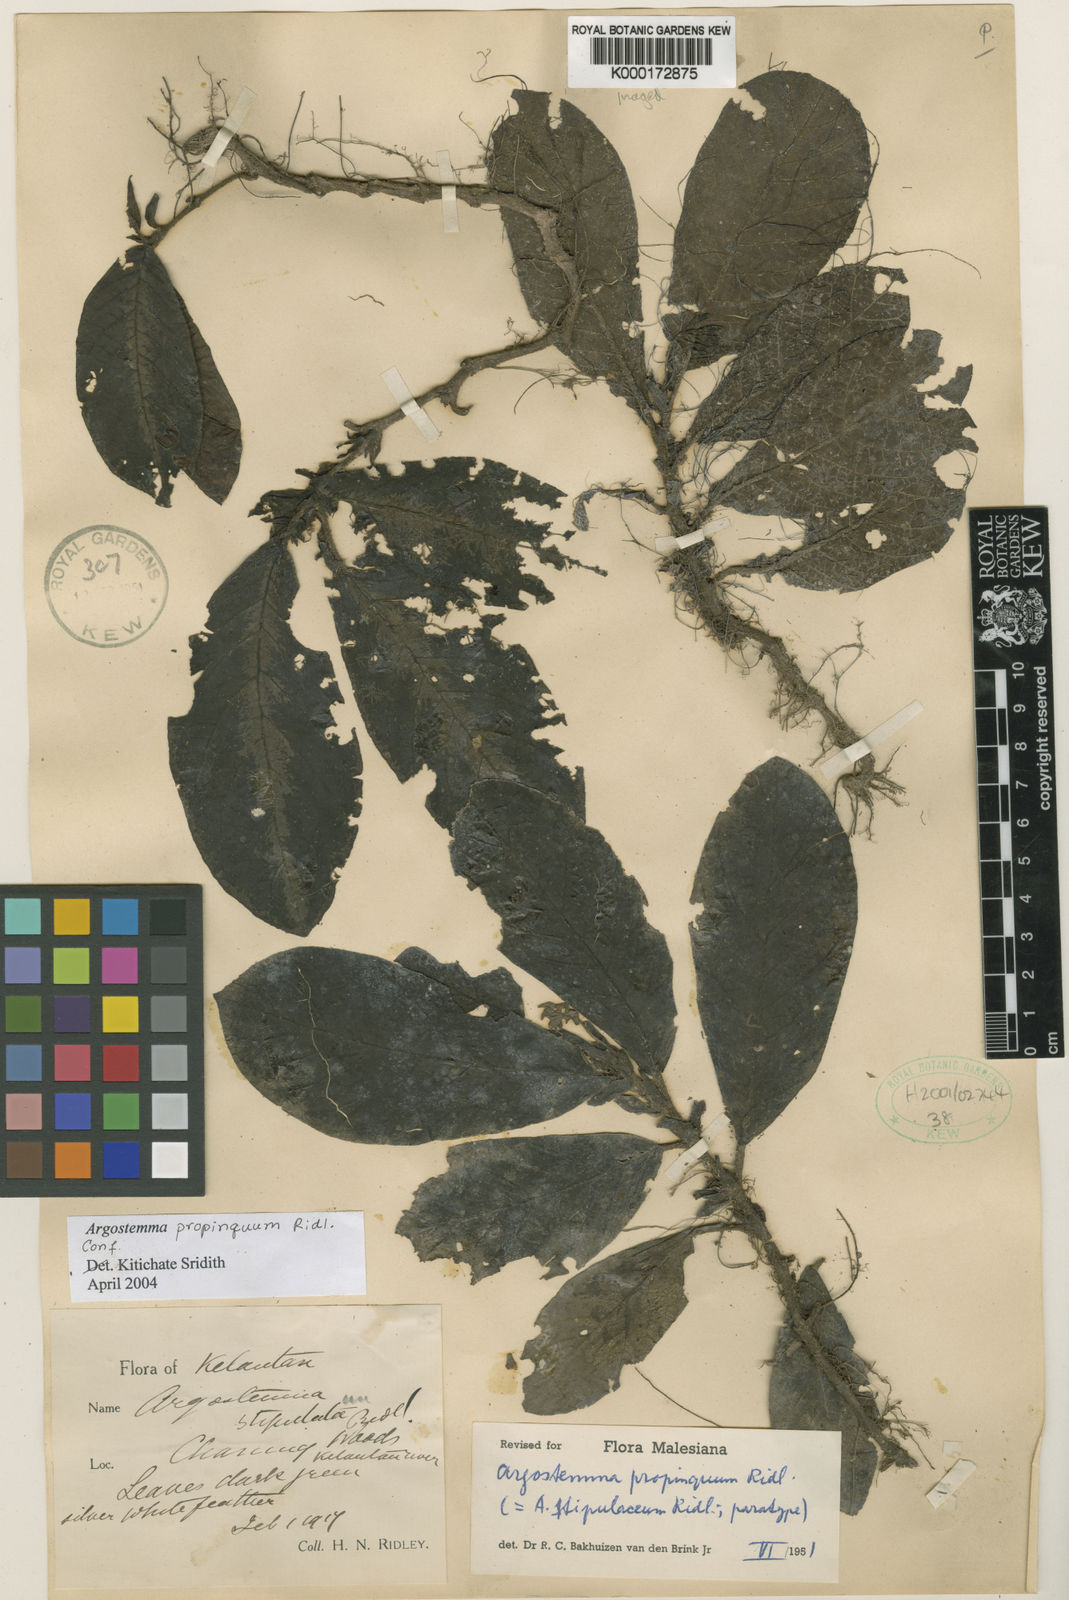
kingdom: Plantae
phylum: Tracheophyta
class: Magnoliopsida
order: Gentianales
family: Rubiaceae
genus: Argostemma
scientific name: Argostemma propinquum
